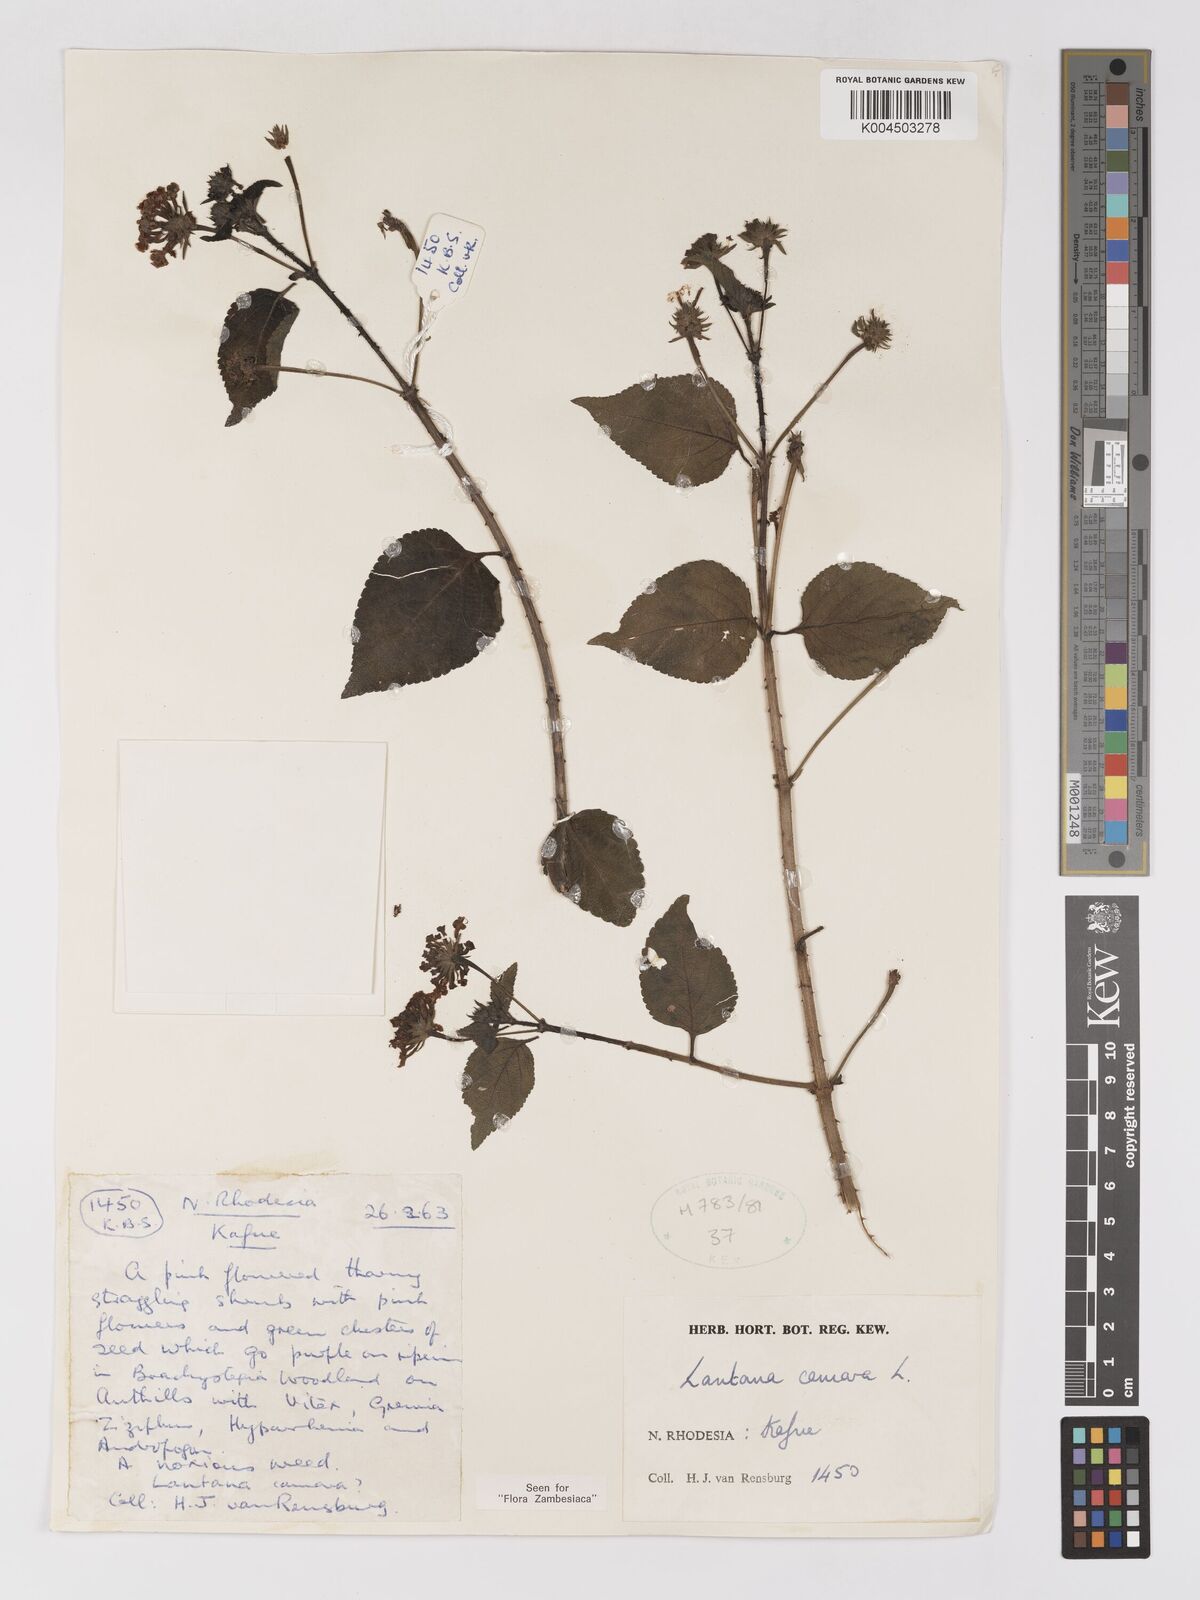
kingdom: Plantae
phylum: Tracheophyta
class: Magnoliopsida
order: Lamiales
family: Verbenaceae
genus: Lantana
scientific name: Lantana camara
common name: Lantana
